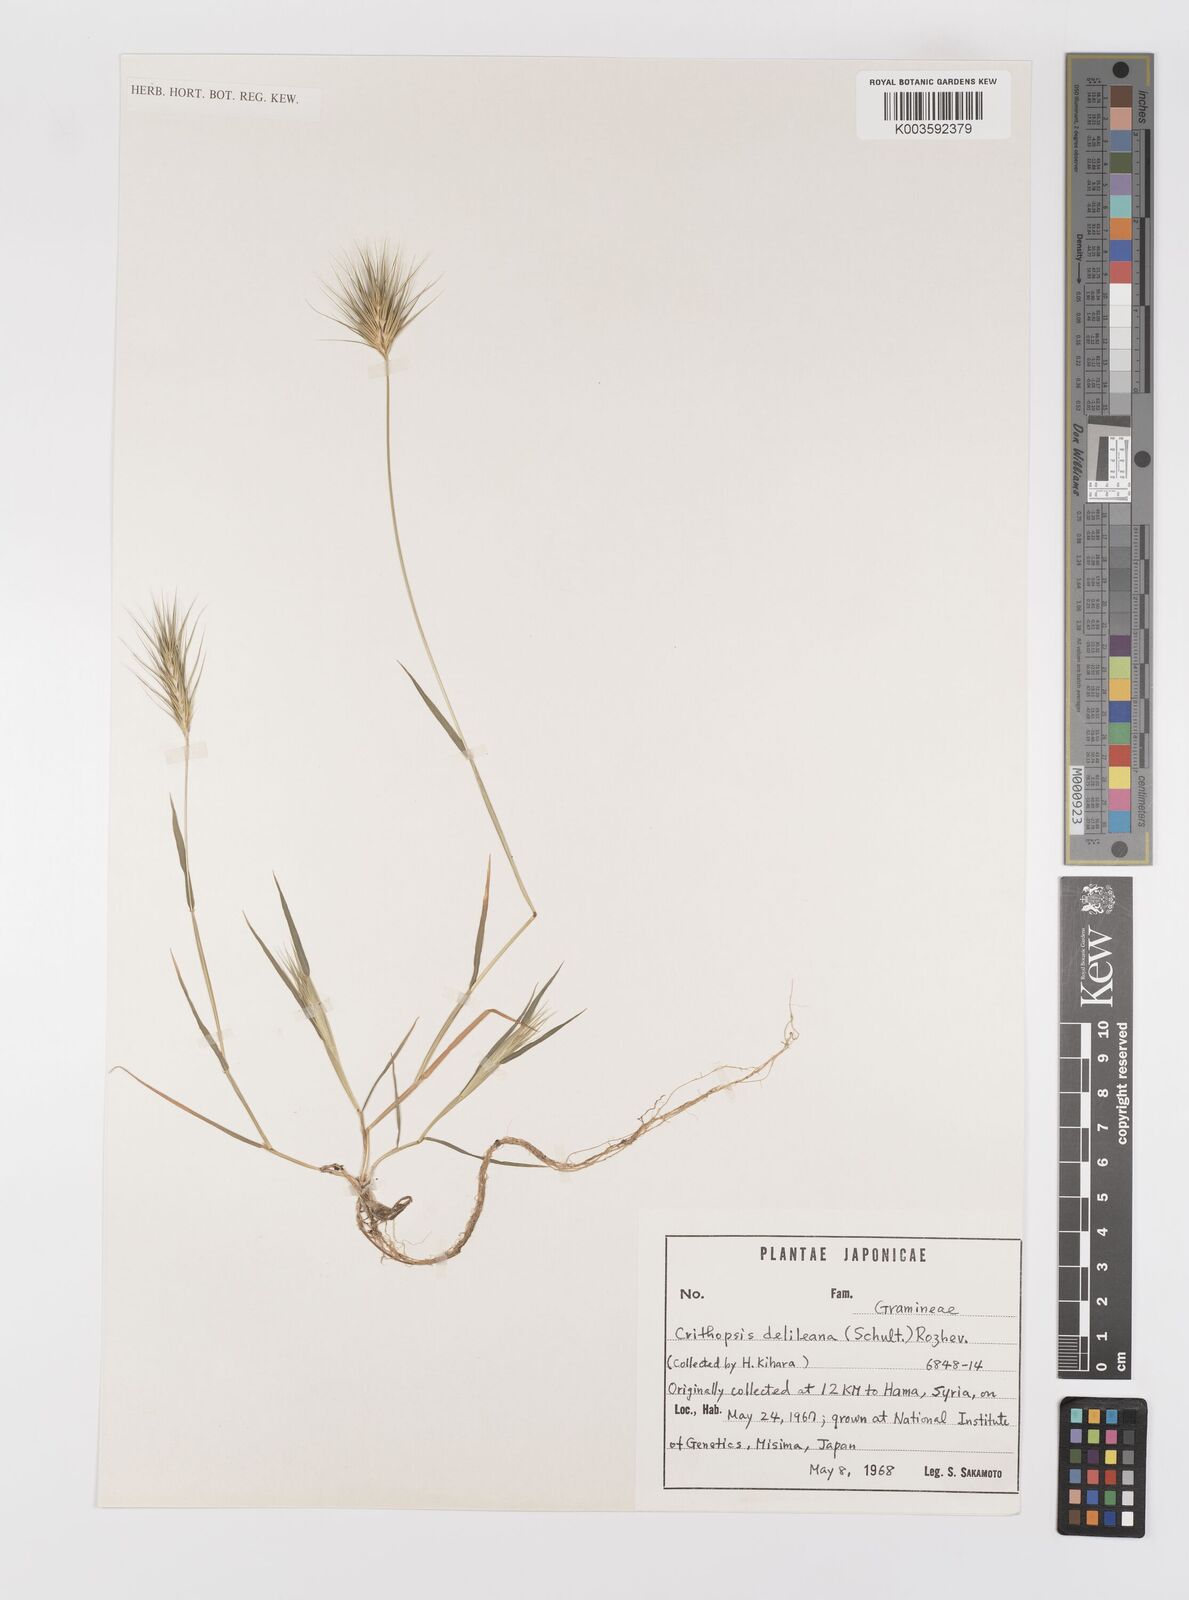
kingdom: Plantae
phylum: Tracheophyta
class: Liliopsida
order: Poales
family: Poaceae
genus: Crithopsis
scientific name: Crithopsis delileana
